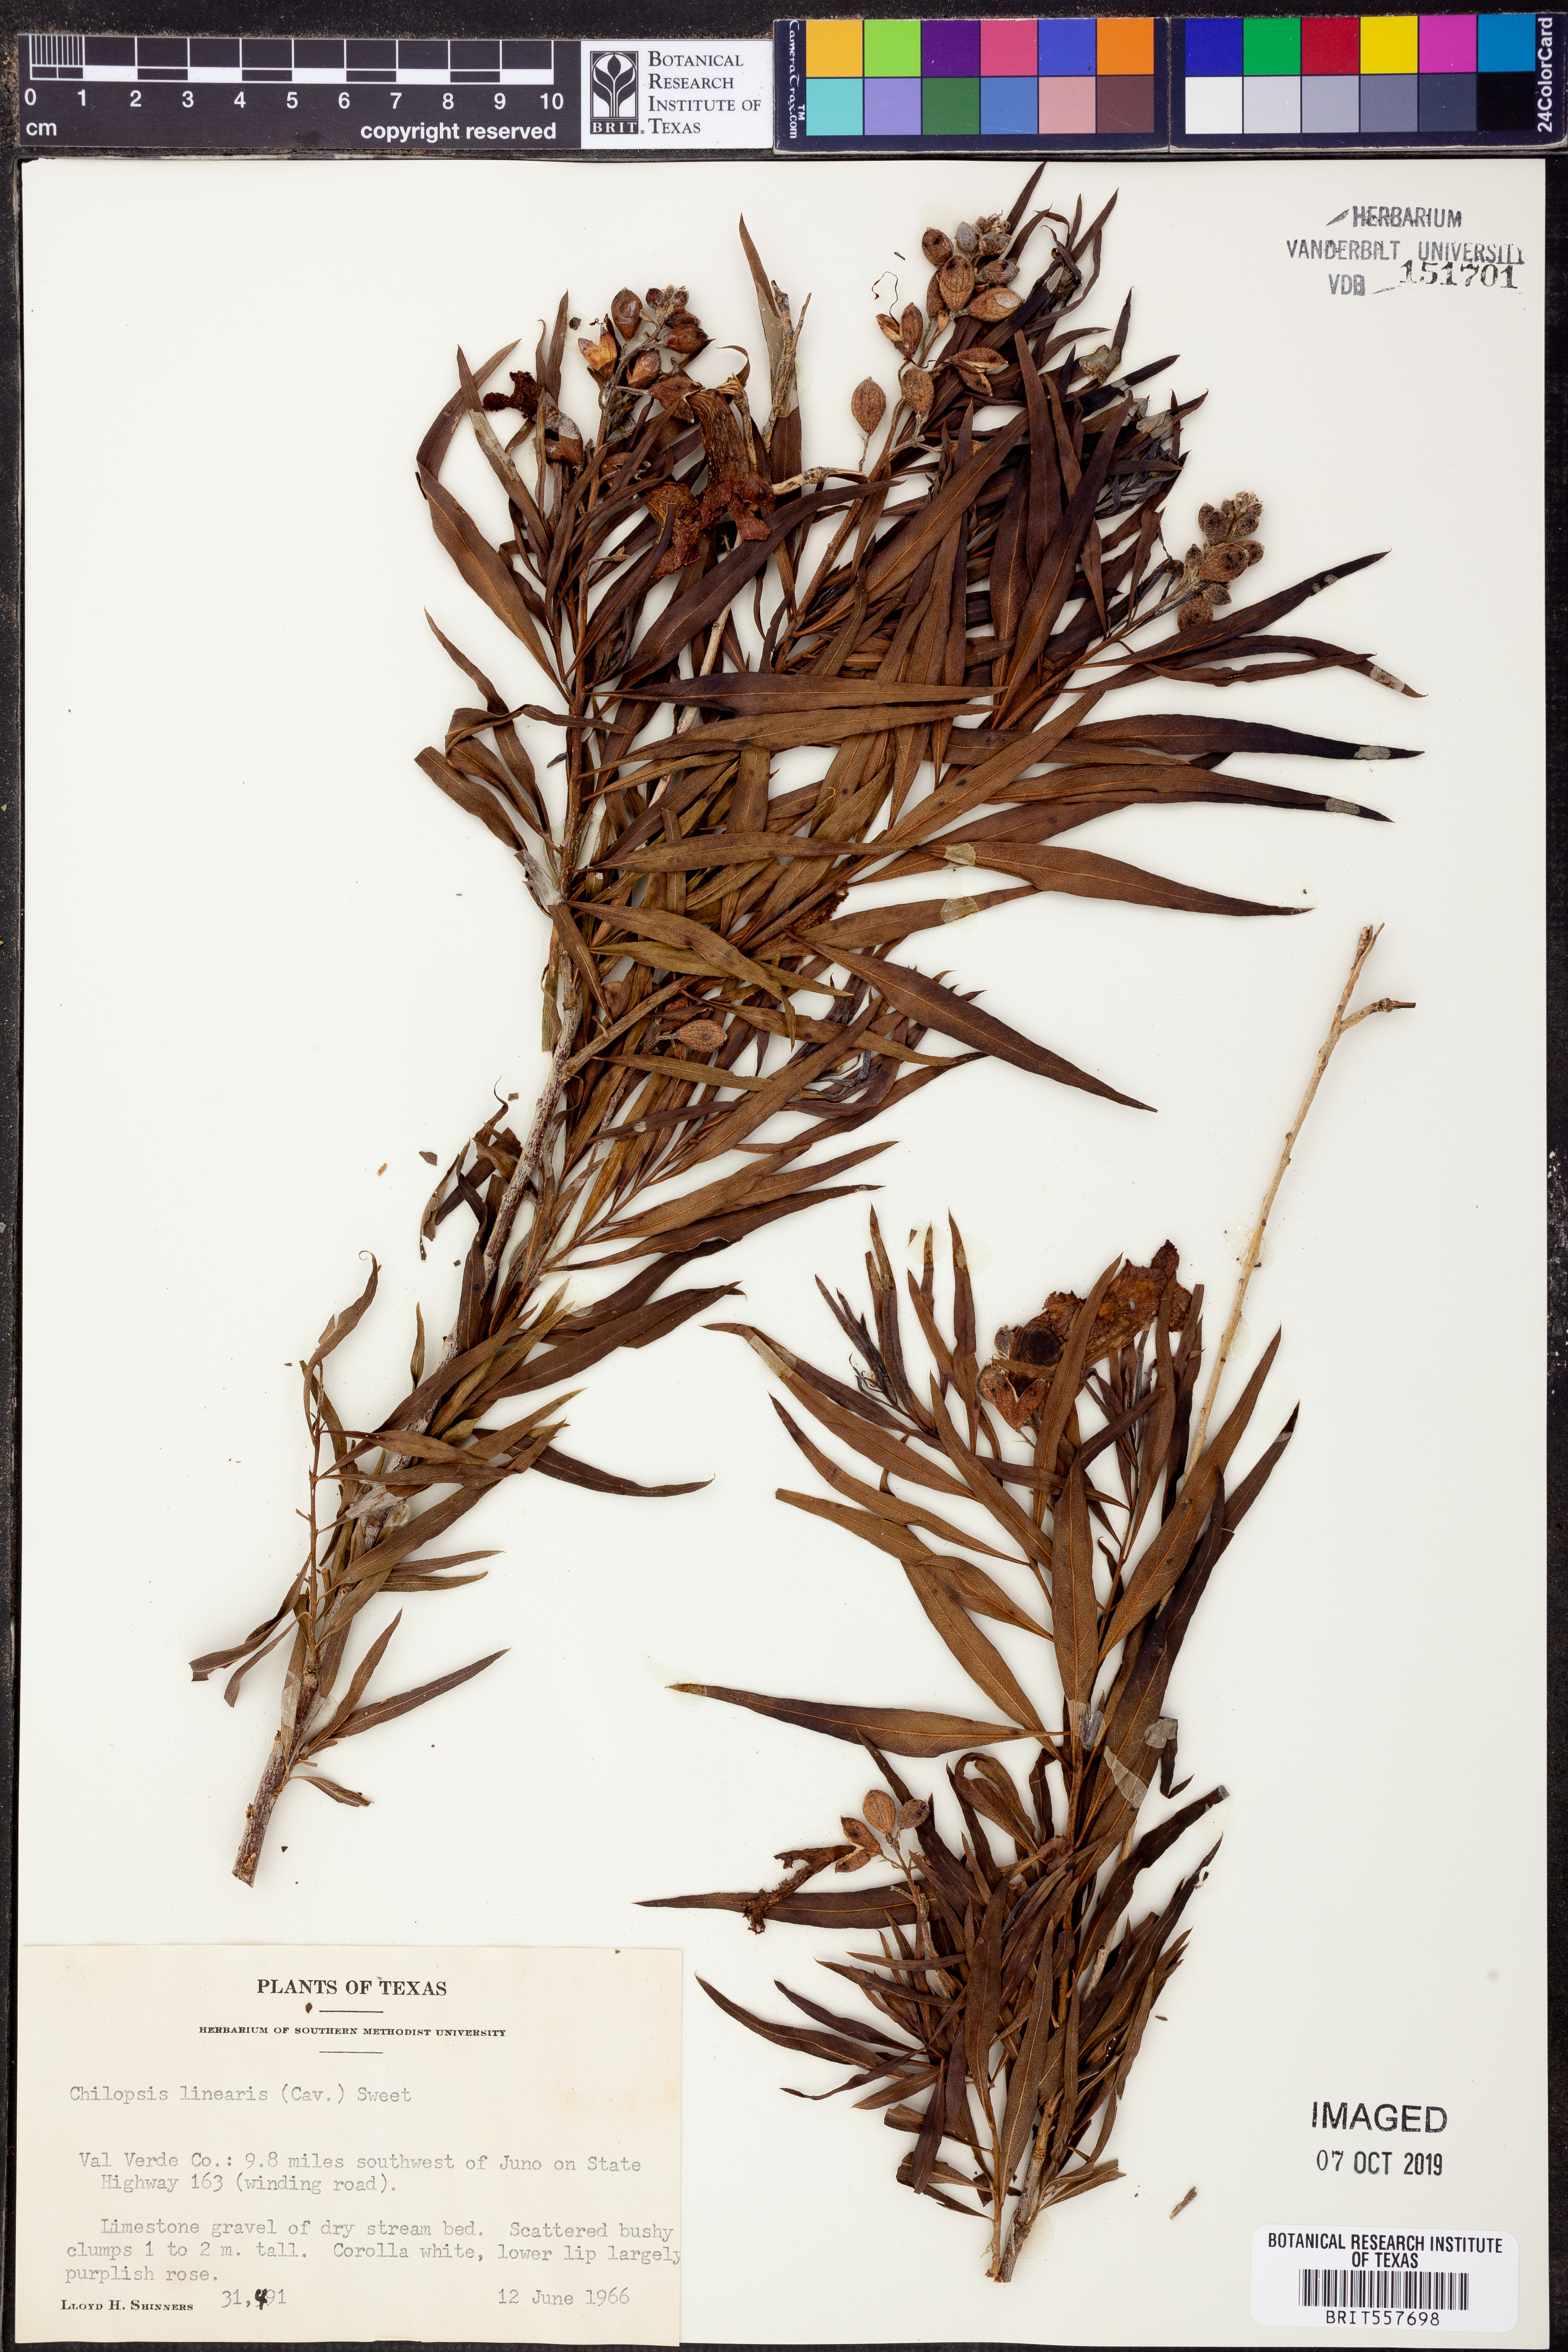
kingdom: Plantae
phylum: Tracheophyta
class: Magnoliopsida
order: Lamiales
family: Bignoniaceae
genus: Chilopsis
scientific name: Chilopsis linearis
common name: Desert-willow
